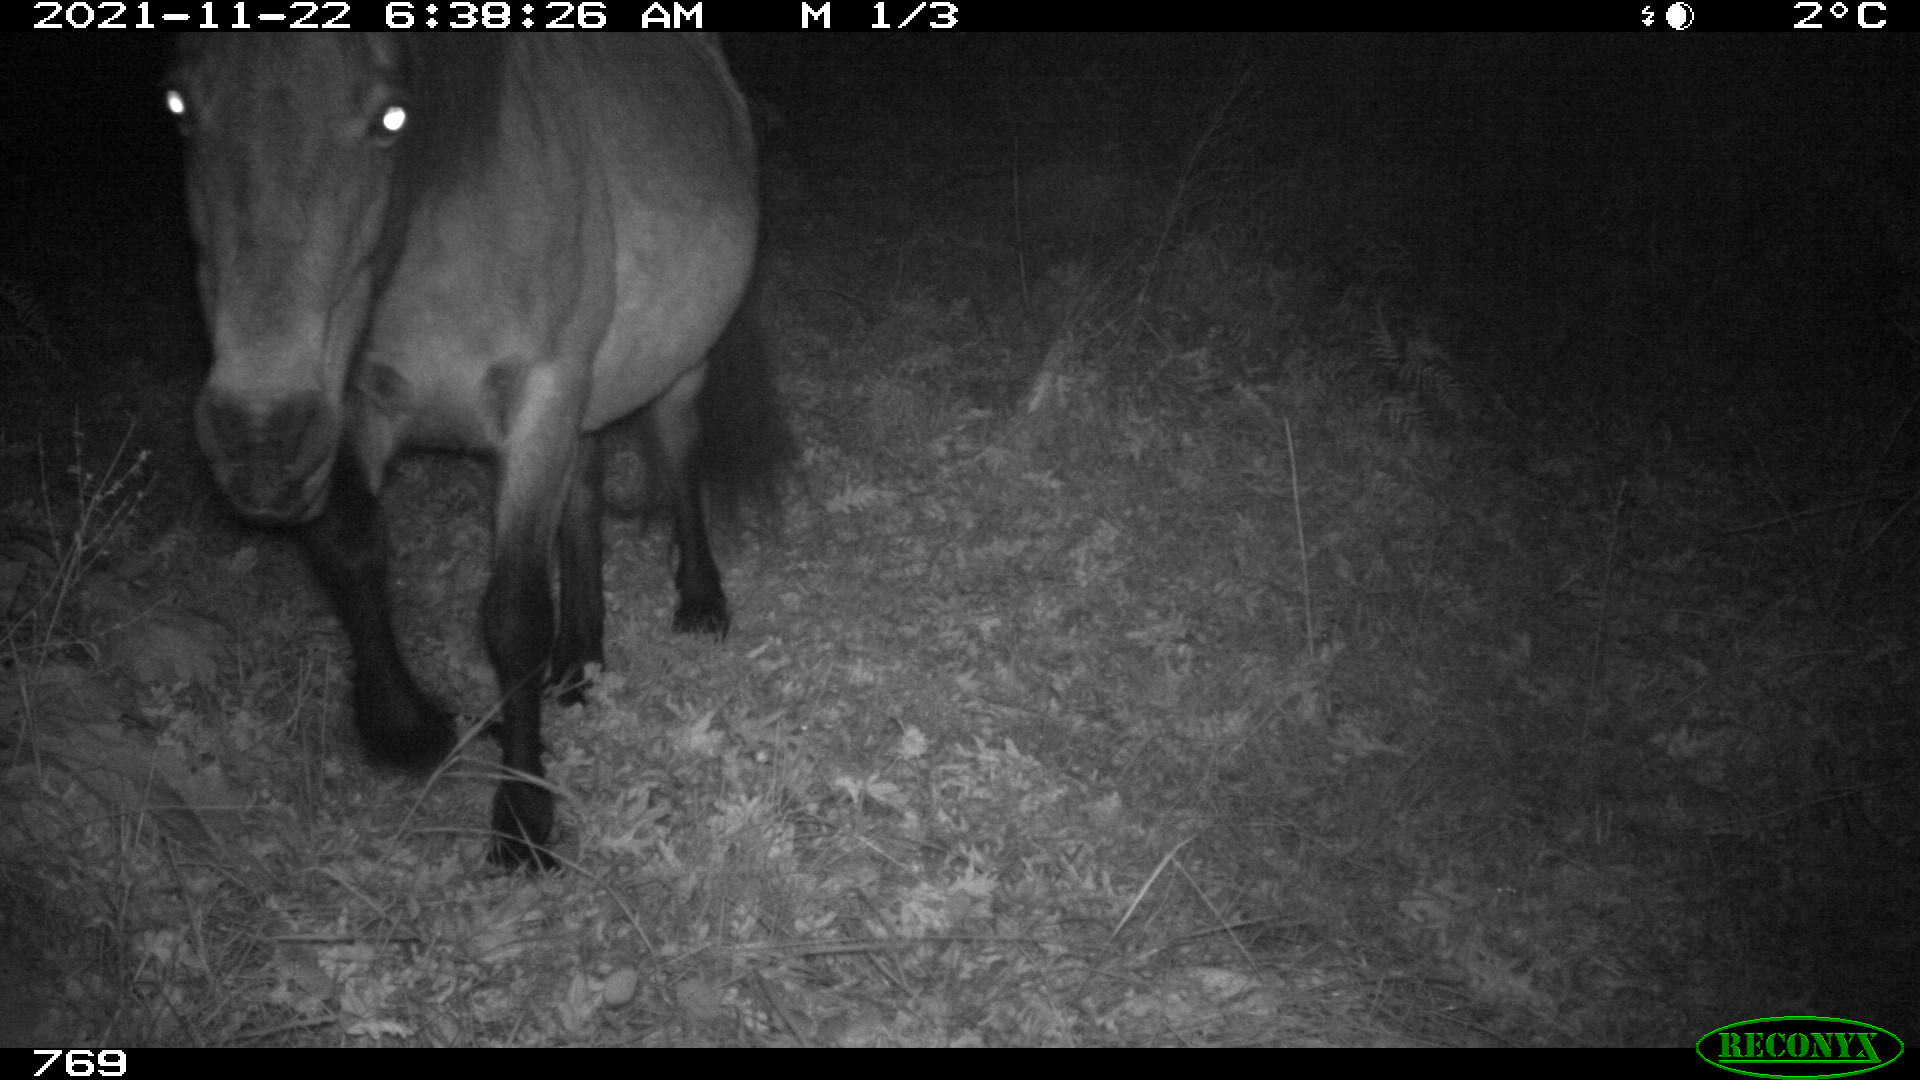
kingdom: Animalia
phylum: Chordata
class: Mammalia
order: Perissodactyla
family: Equidae
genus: Equus
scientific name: Equus caballus
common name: Horse
